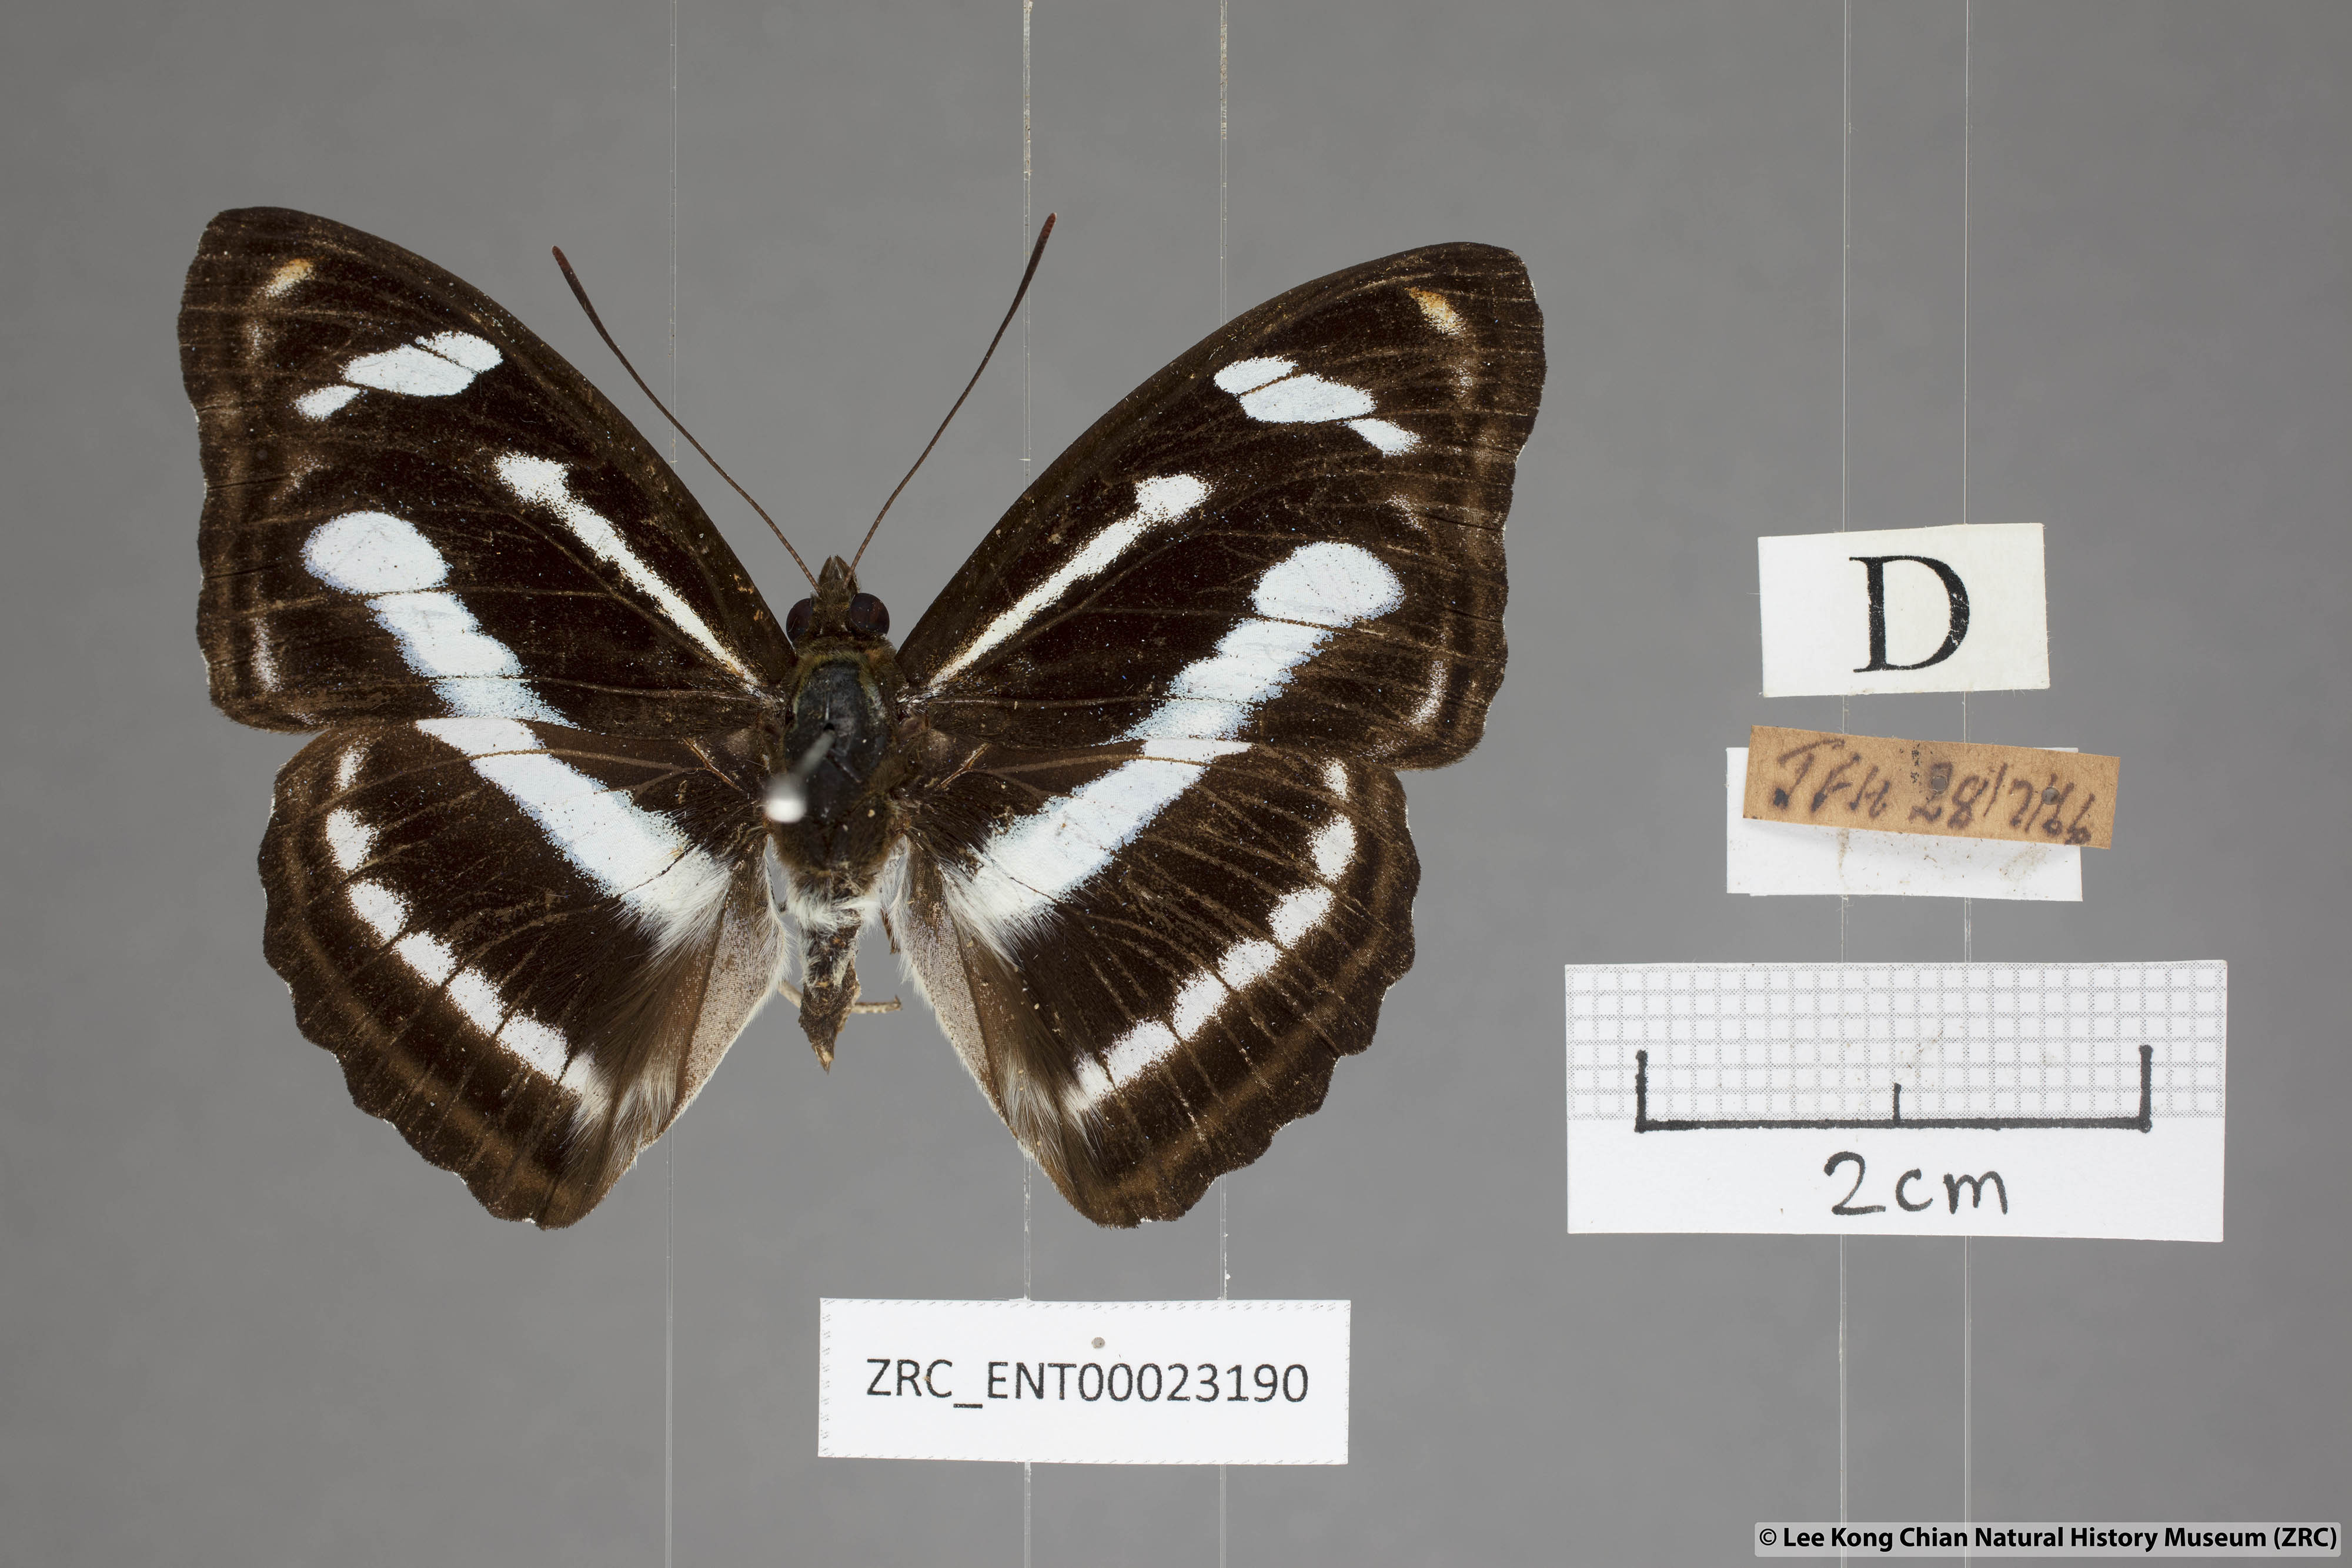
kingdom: Animalia
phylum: Arthropoda
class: Insecta
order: Lepidoptera
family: Nymphalidae
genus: Pantoporia
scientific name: Pantoporia cama
